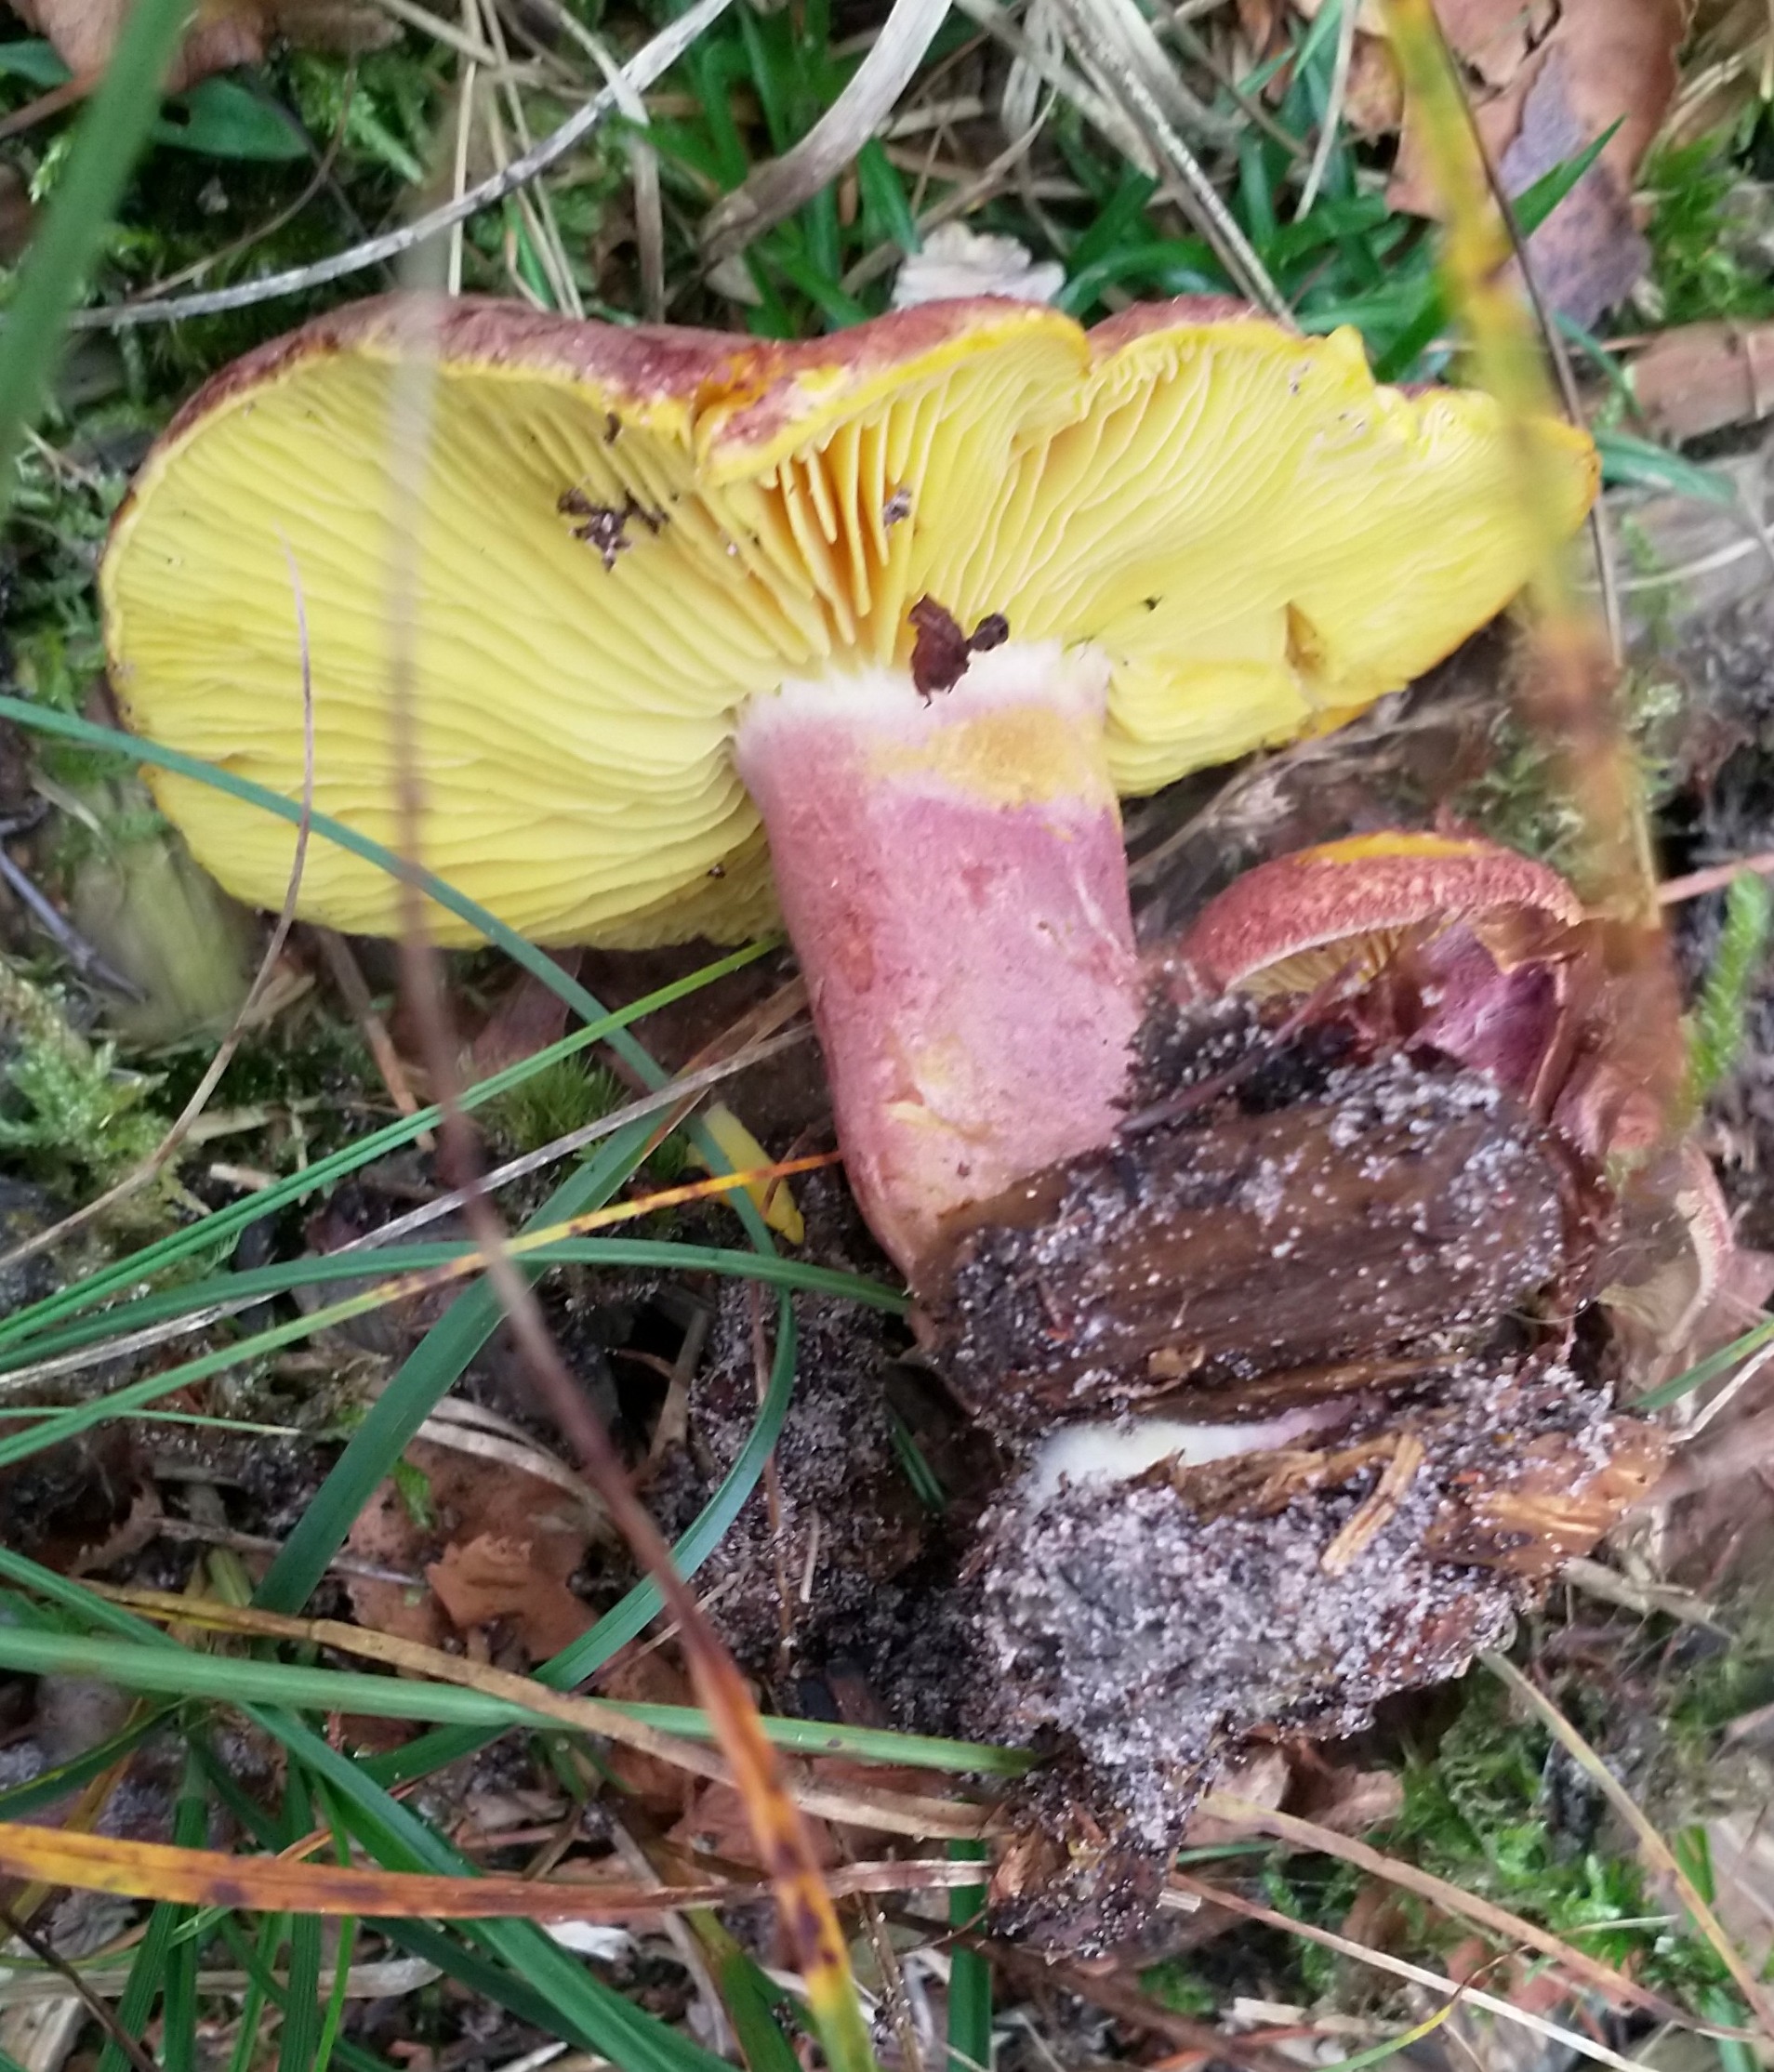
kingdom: Fungi
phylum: Basidiomycota
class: Agaricomycetes
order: Agaricales
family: Tricholomataceae
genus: Tricholomopsis
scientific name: Tricholomopsis rutilans
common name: Purpur-væbnerhat
